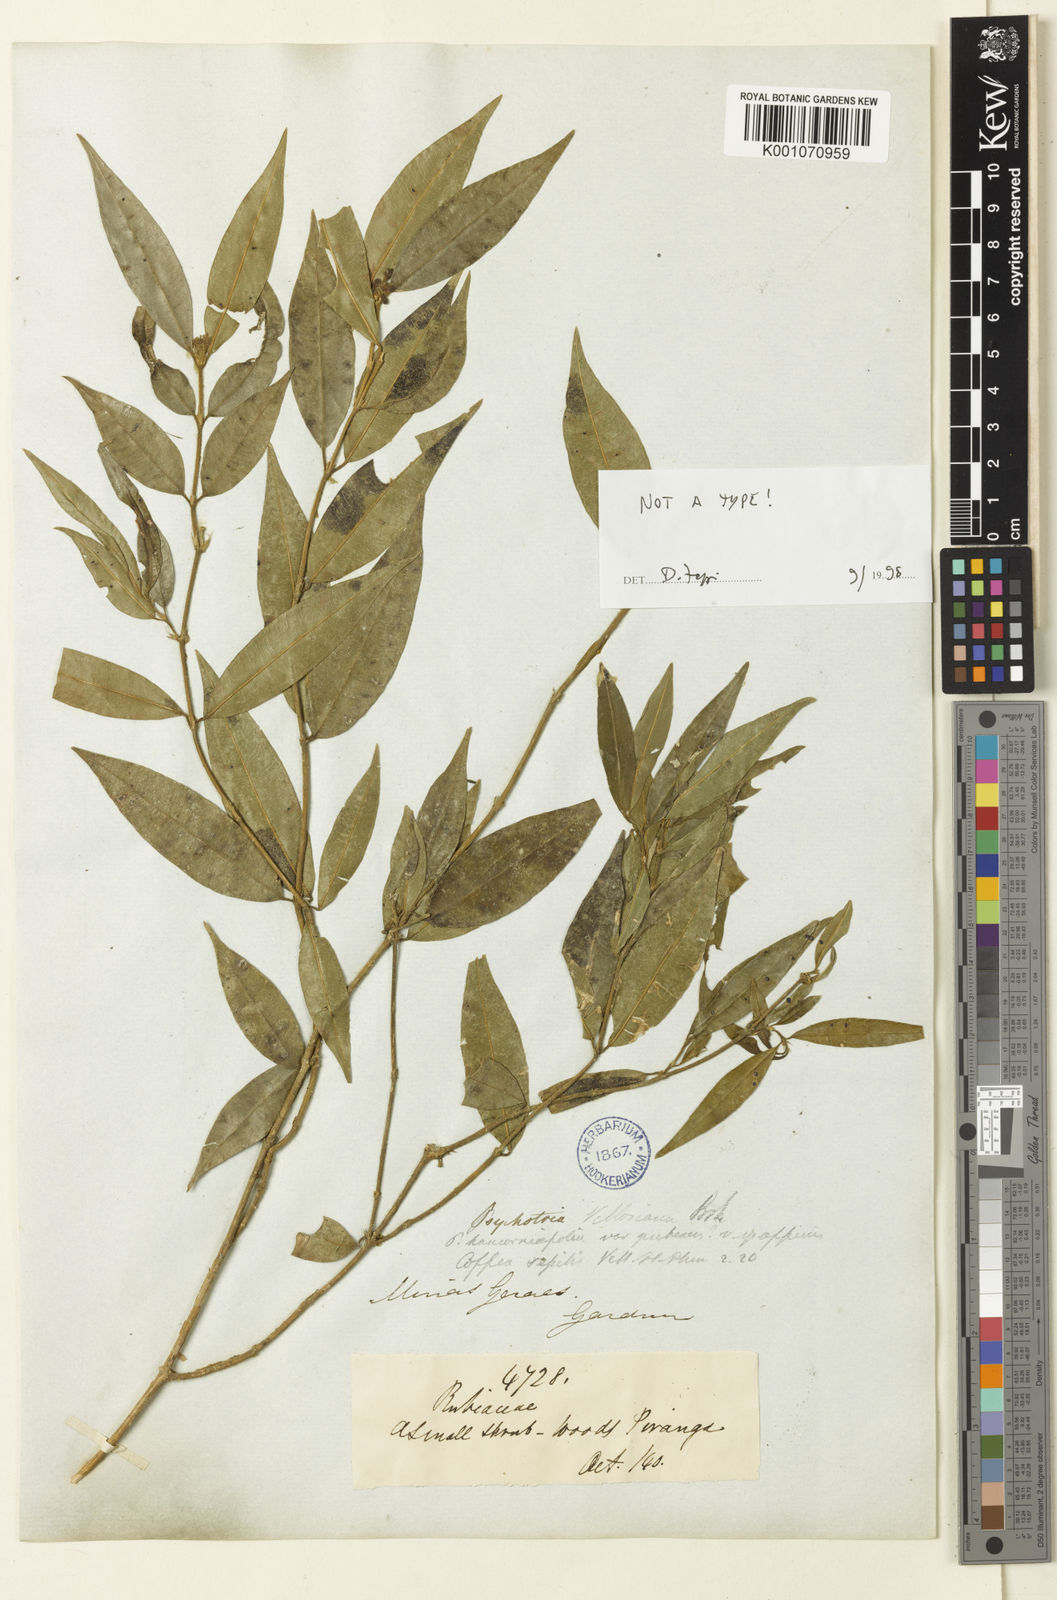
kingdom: Plantae
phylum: Tracheophyta
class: Magnoliopsida
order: Gentianales
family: Rubiaceae
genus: Palicourea
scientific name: Palicourea sessilis
